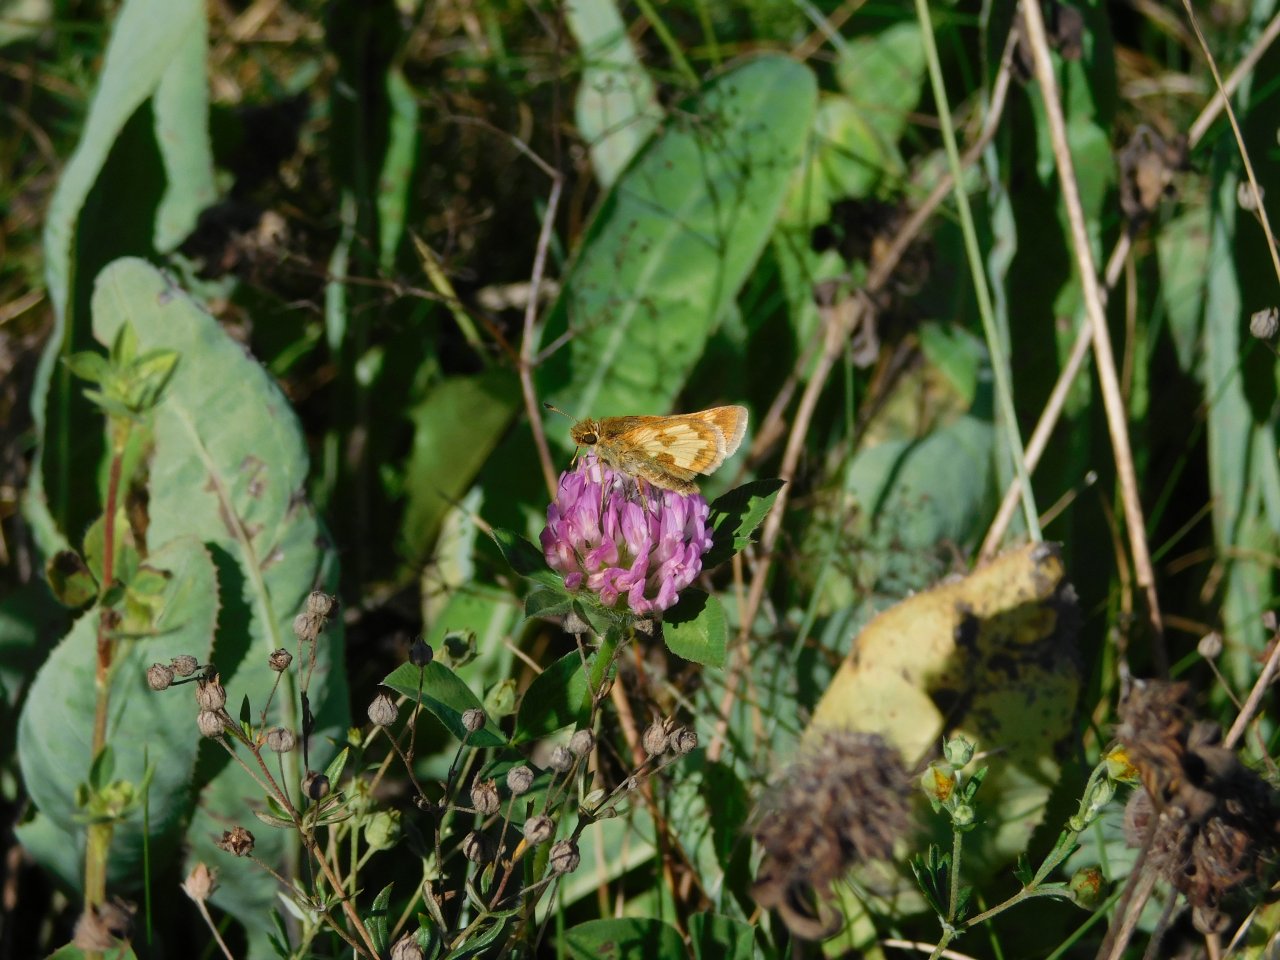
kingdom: Animalia
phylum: Arthropoda
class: Insecta
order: Lepidoptera
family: Hesperiidae
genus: Polites
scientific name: Polites coras
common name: Peck's Skipper
